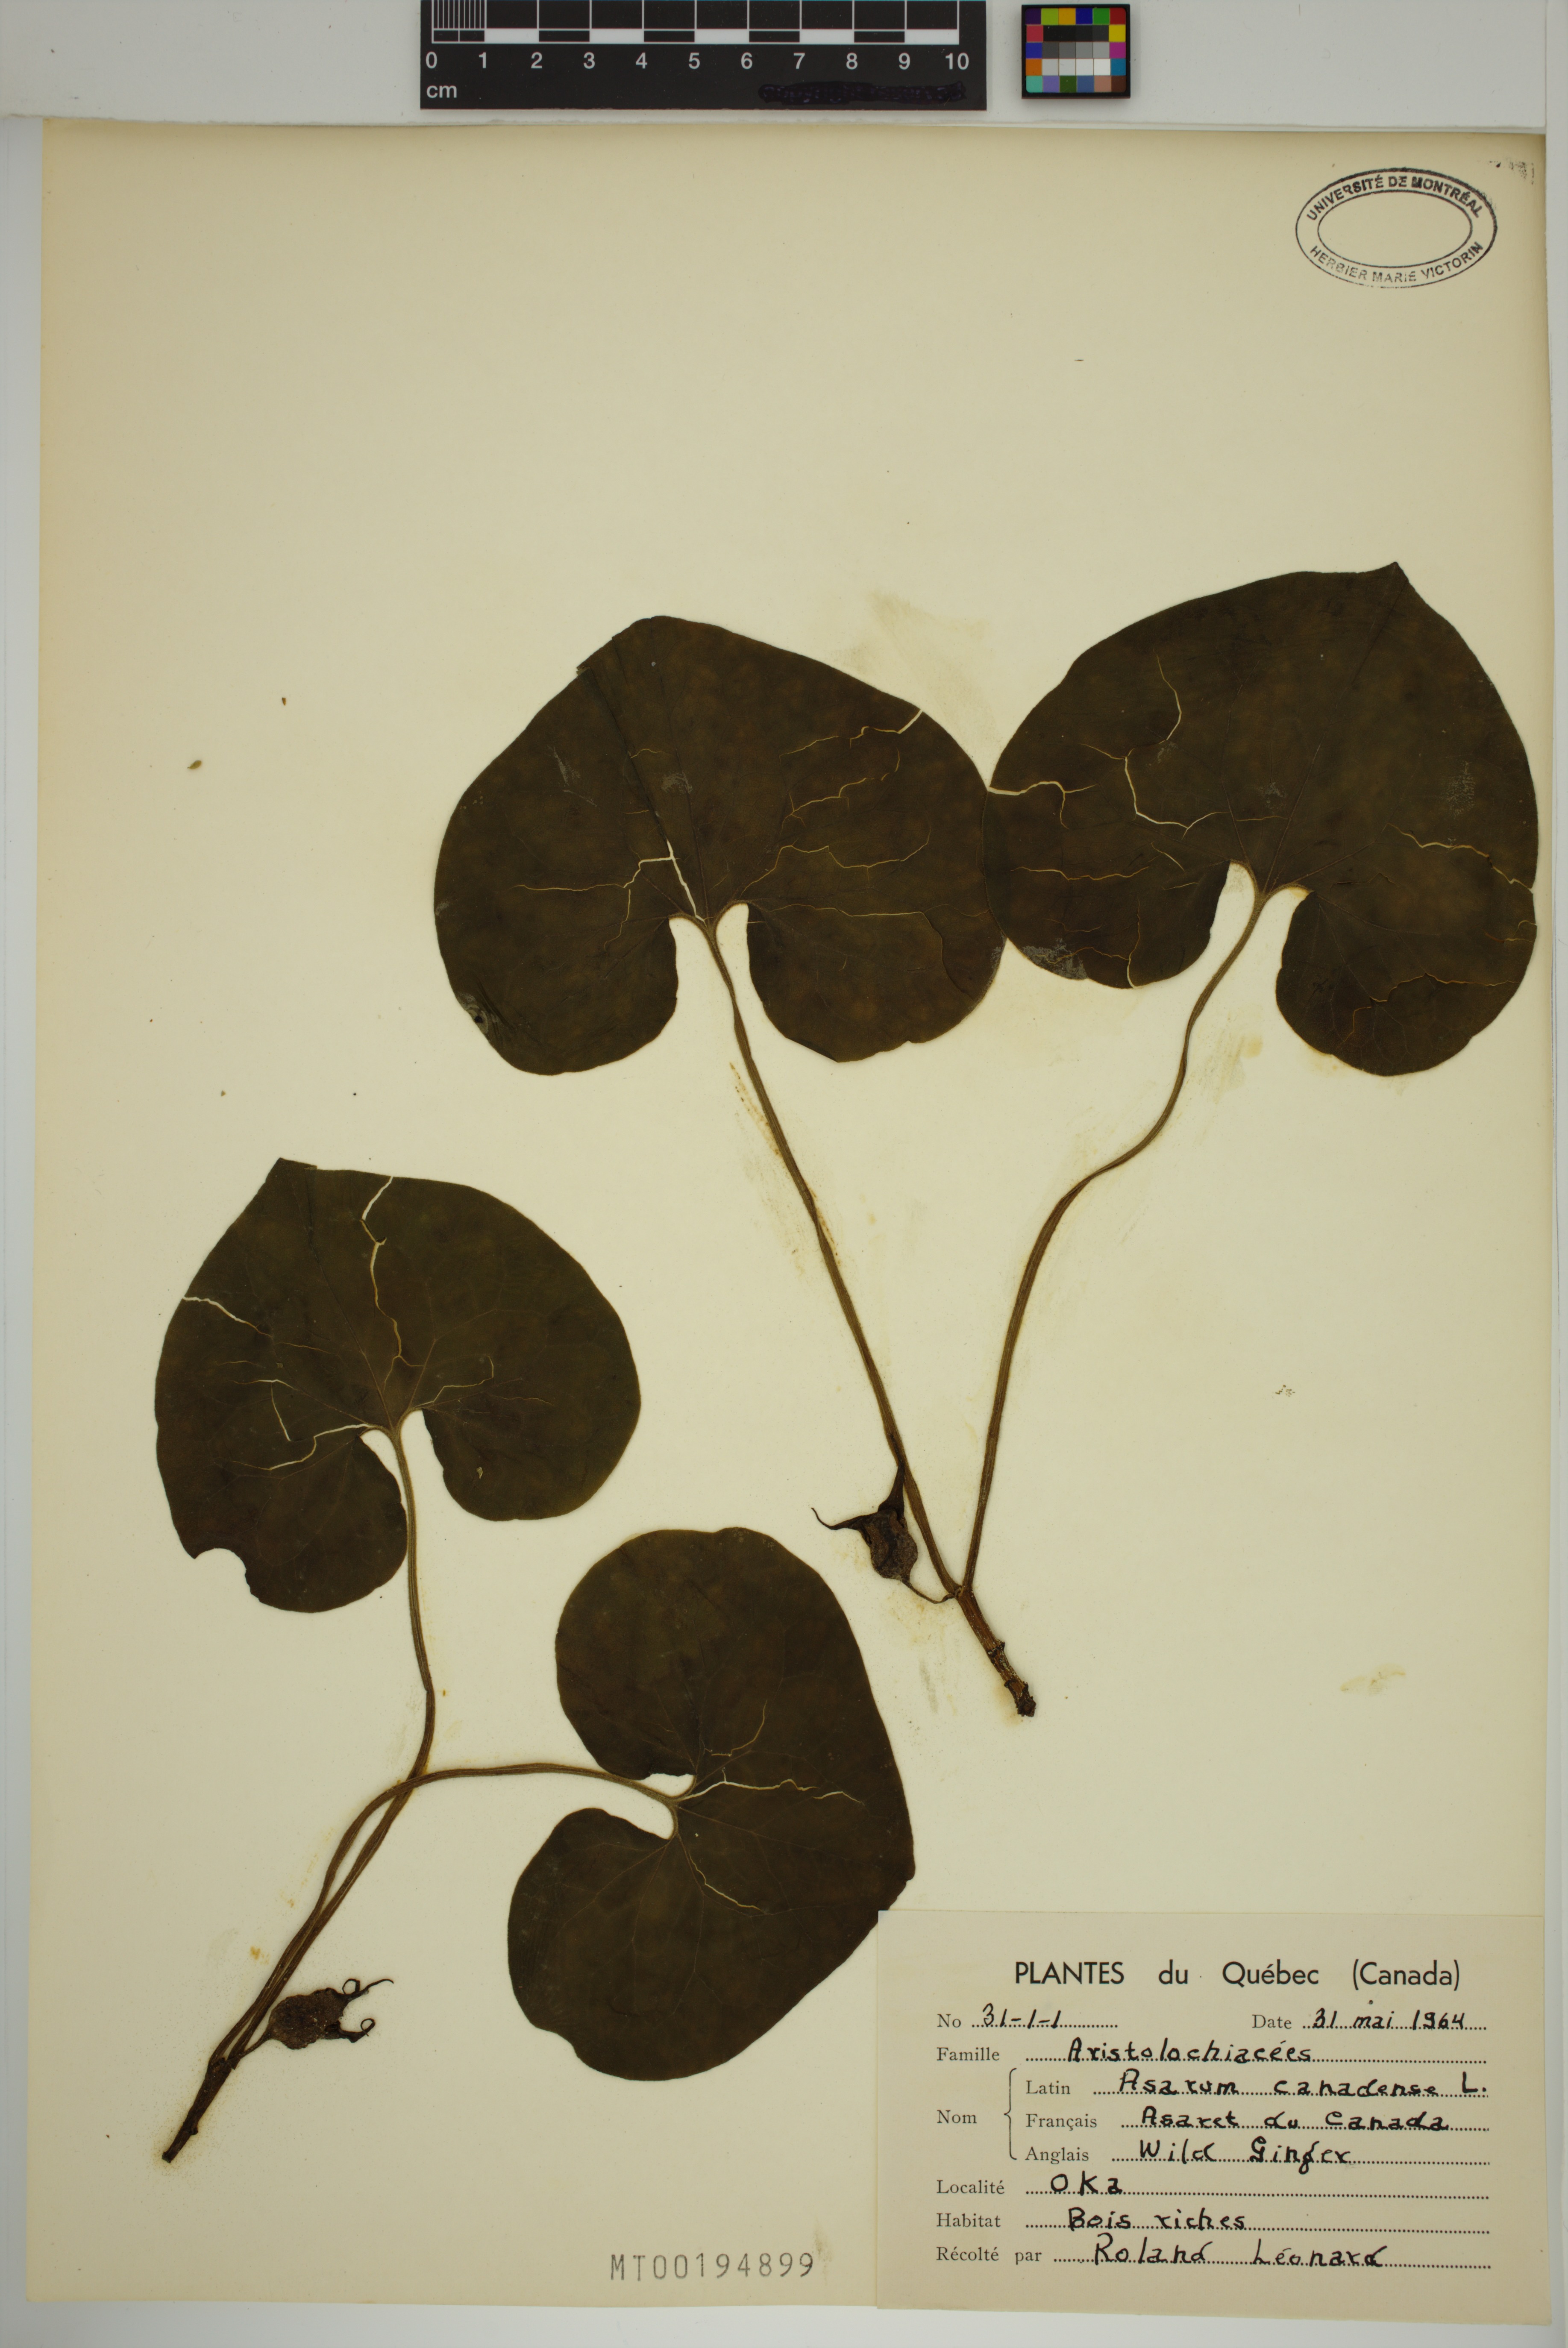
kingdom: Plantae
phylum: Tracheophyta
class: Magnoliopsida
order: Piperales
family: Aristolochiaceae
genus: Asarum
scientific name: Asarum canadense
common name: Wild ginger
